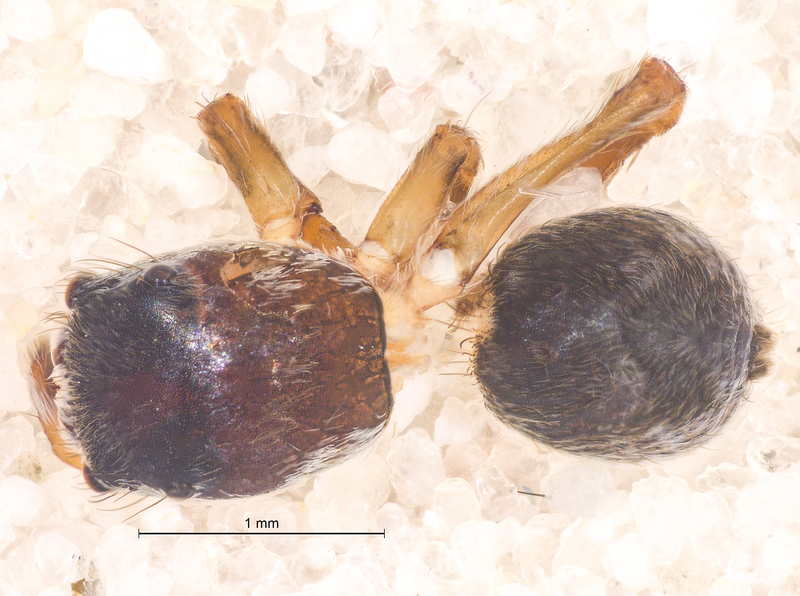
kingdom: Animalia
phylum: Arthropoda
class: Arachnida
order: Araneae
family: Salticidae
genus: Attulus
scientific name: Attulus saltator
